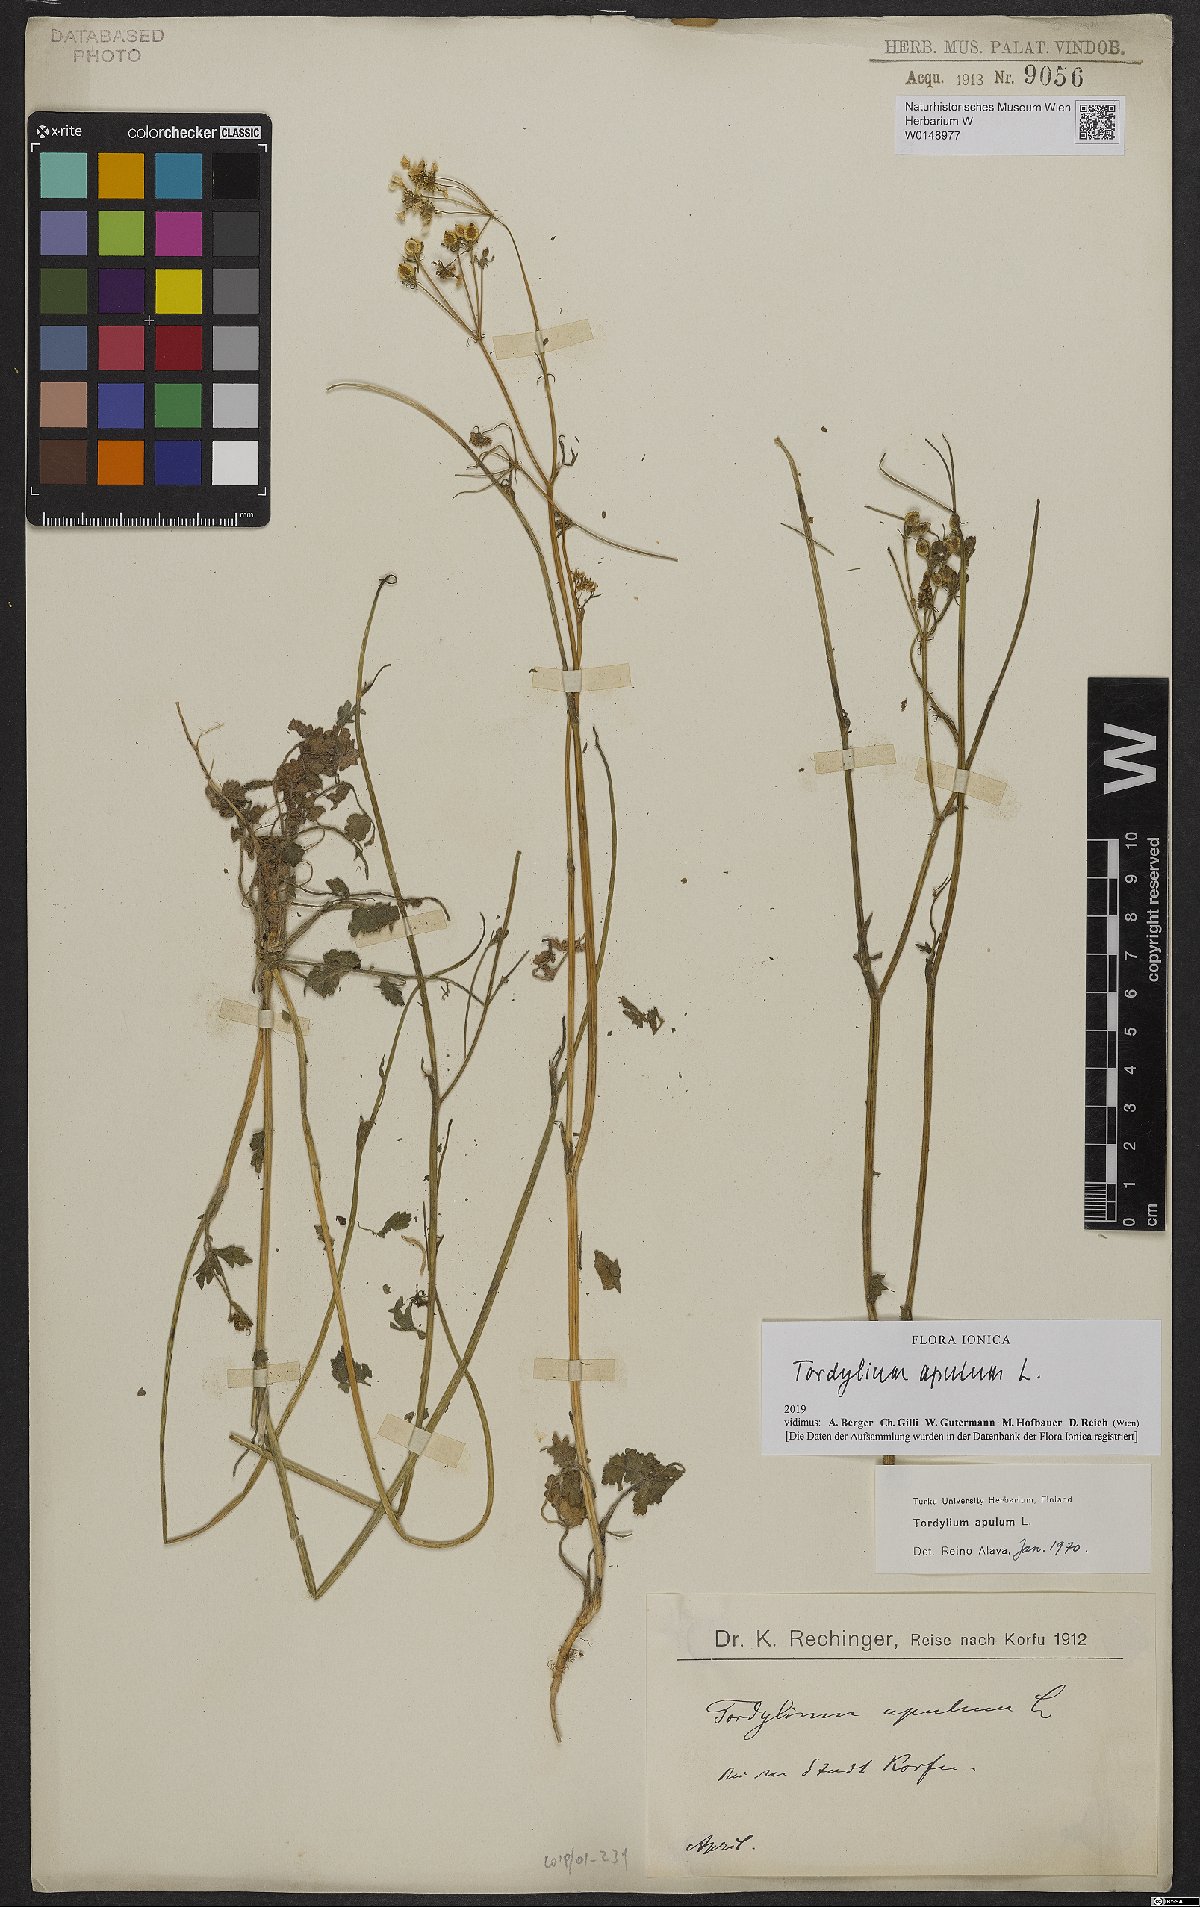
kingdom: Plantae
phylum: Tracheophyta
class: Magnoliopsida
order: Apiales
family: Apiaceae
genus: Tordylium
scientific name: Tordylium apulum
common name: Mediterranean hartwort
